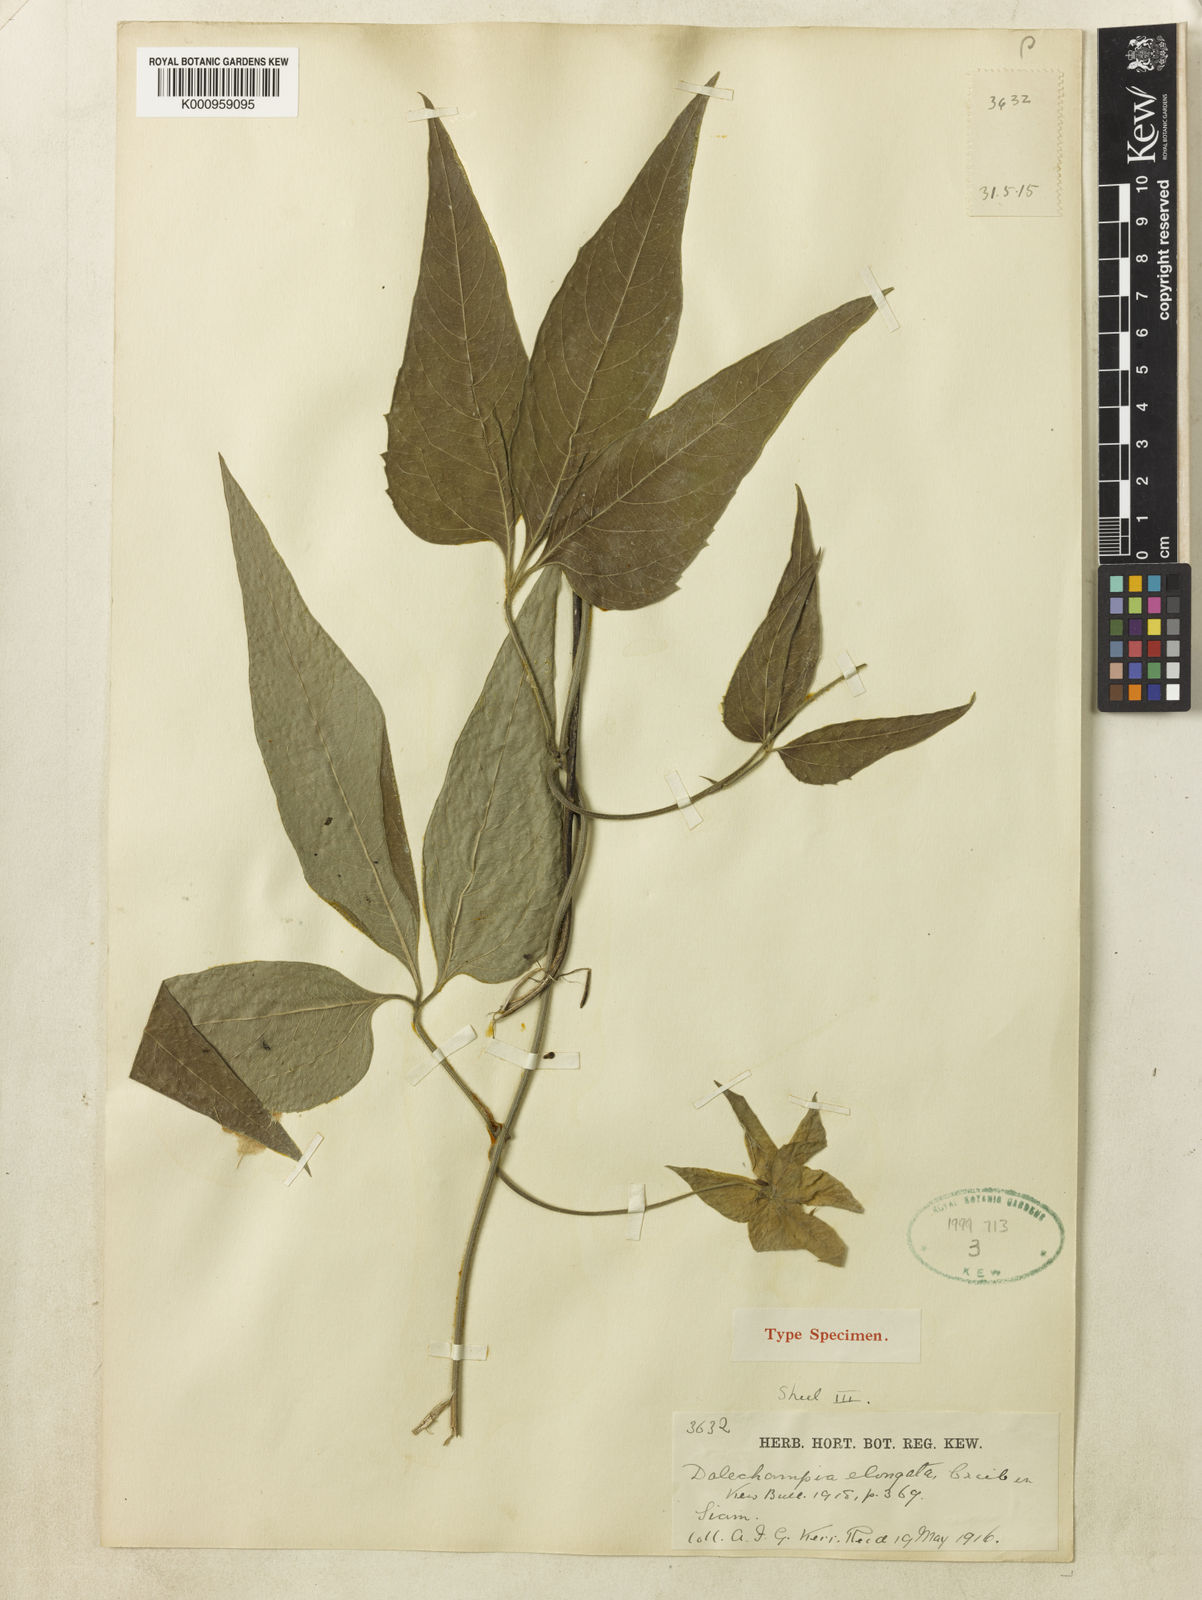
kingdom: Plantae
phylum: Tracheophyta
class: Magnoliopsida
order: Malpighiales
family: Euphorbiaceae
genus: Dalechampia
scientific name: Dalechampia elongata
